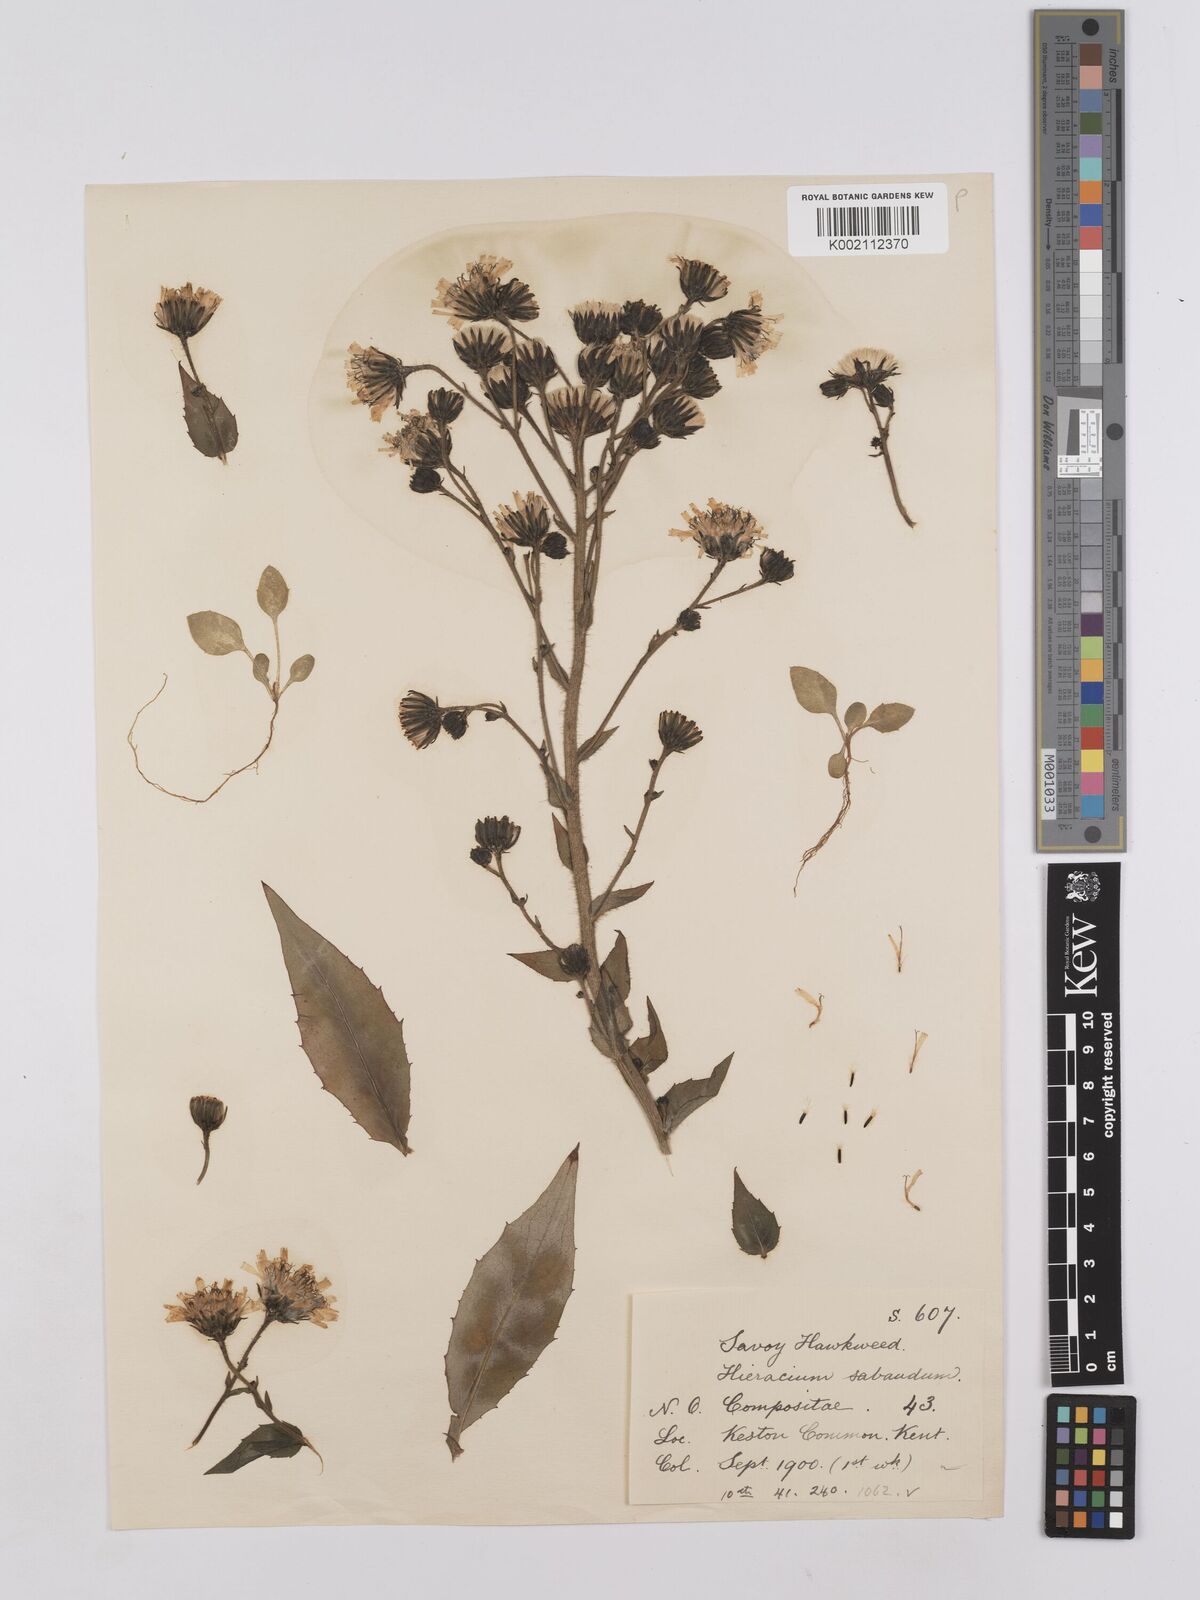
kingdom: Plantae
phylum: Tracheophyta
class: Magnoliopsida
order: Asterales
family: Asteraceae
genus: Hieracium
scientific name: Hieracium sabaudum
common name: New england hawkweed
